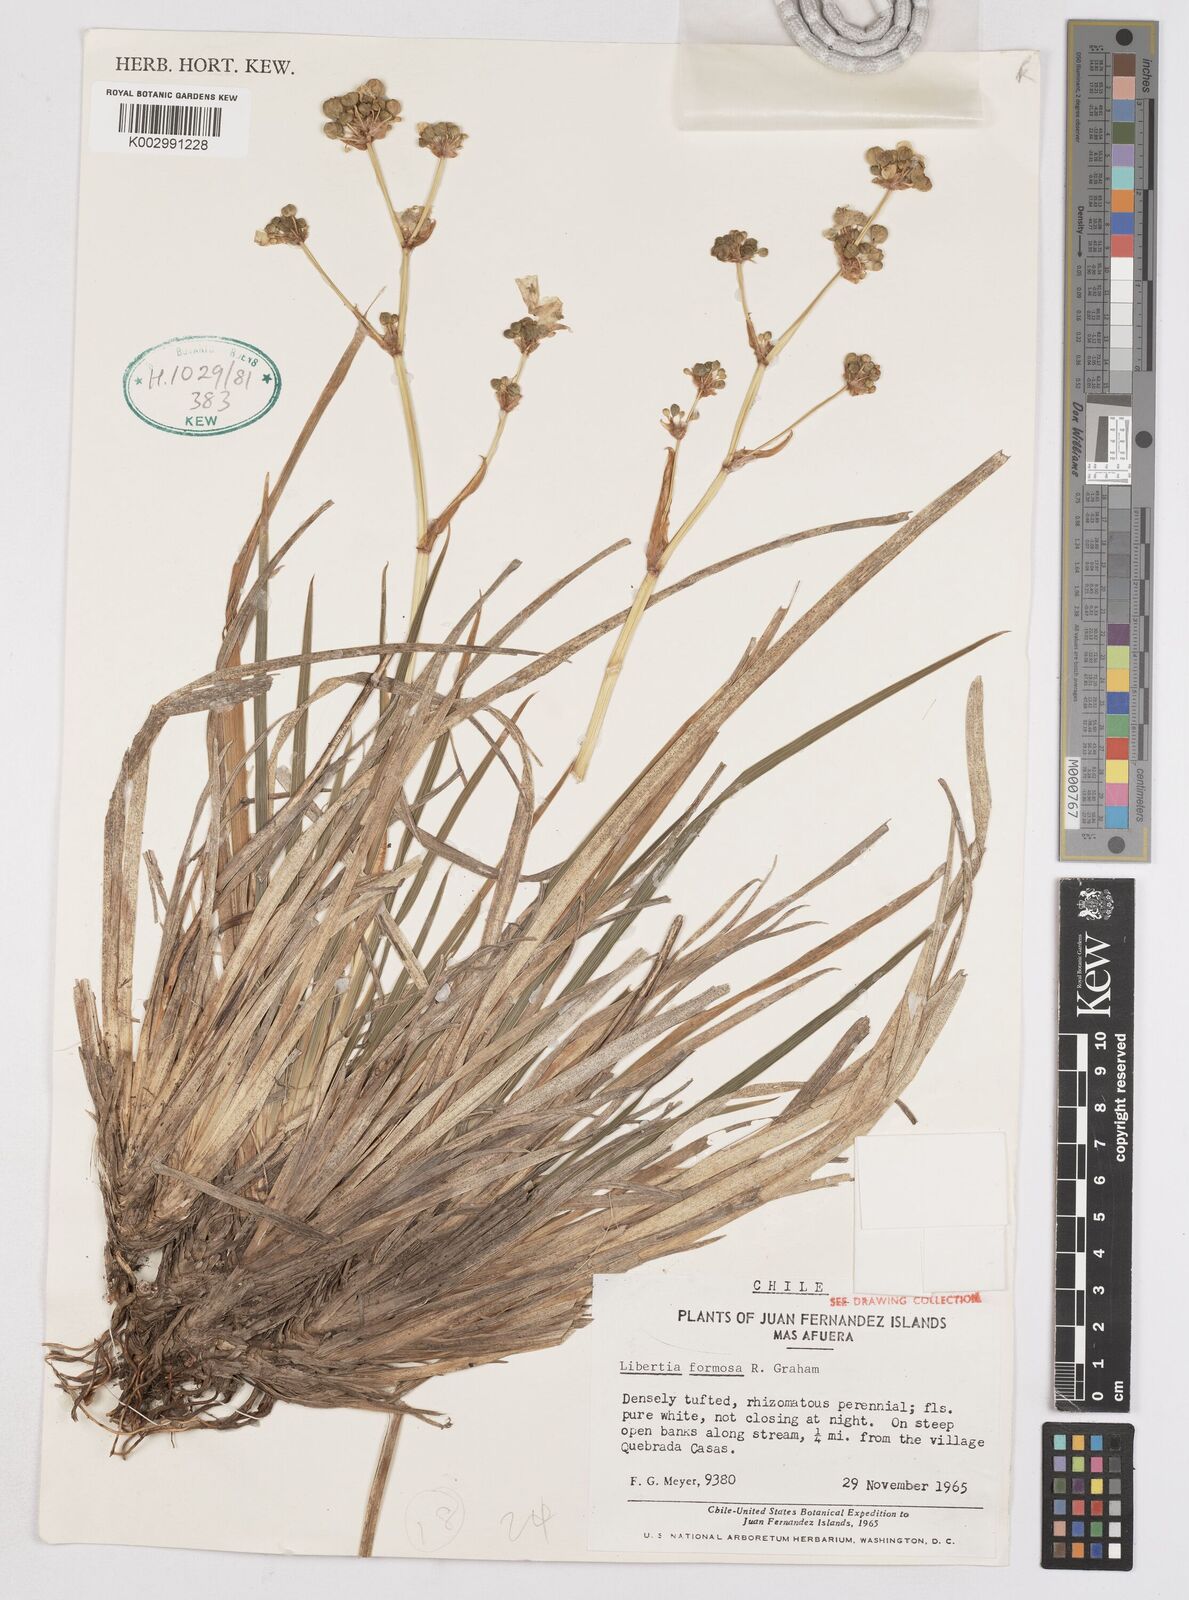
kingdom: Plantae
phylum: Tracheophyta
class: Liliopsida
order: Asparagales
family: Iridaceae
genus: Libertia
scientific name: Libertia chilensis
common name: Satin flower
